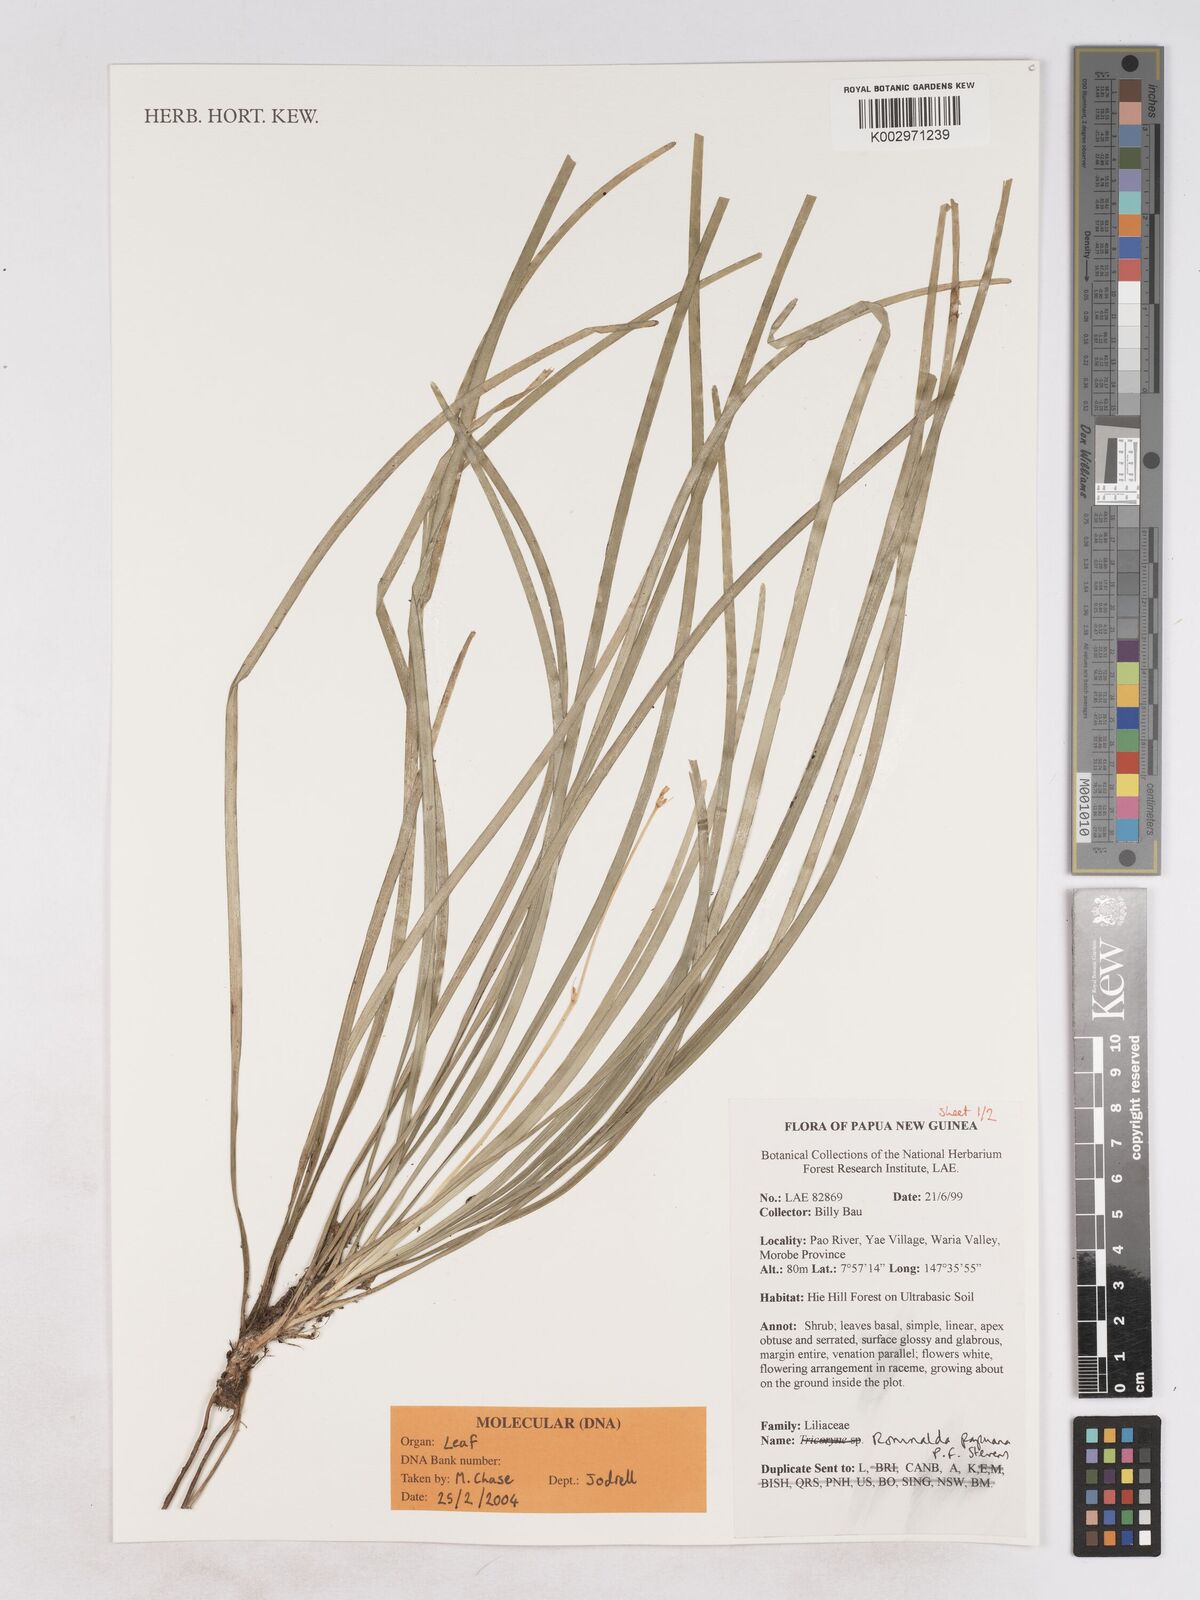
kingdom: Plantae
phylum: Tracheophyta
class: Liliopsida
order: Asparagales
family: Asparagaceae
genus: Romnalda
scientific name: Romnalda papuana
